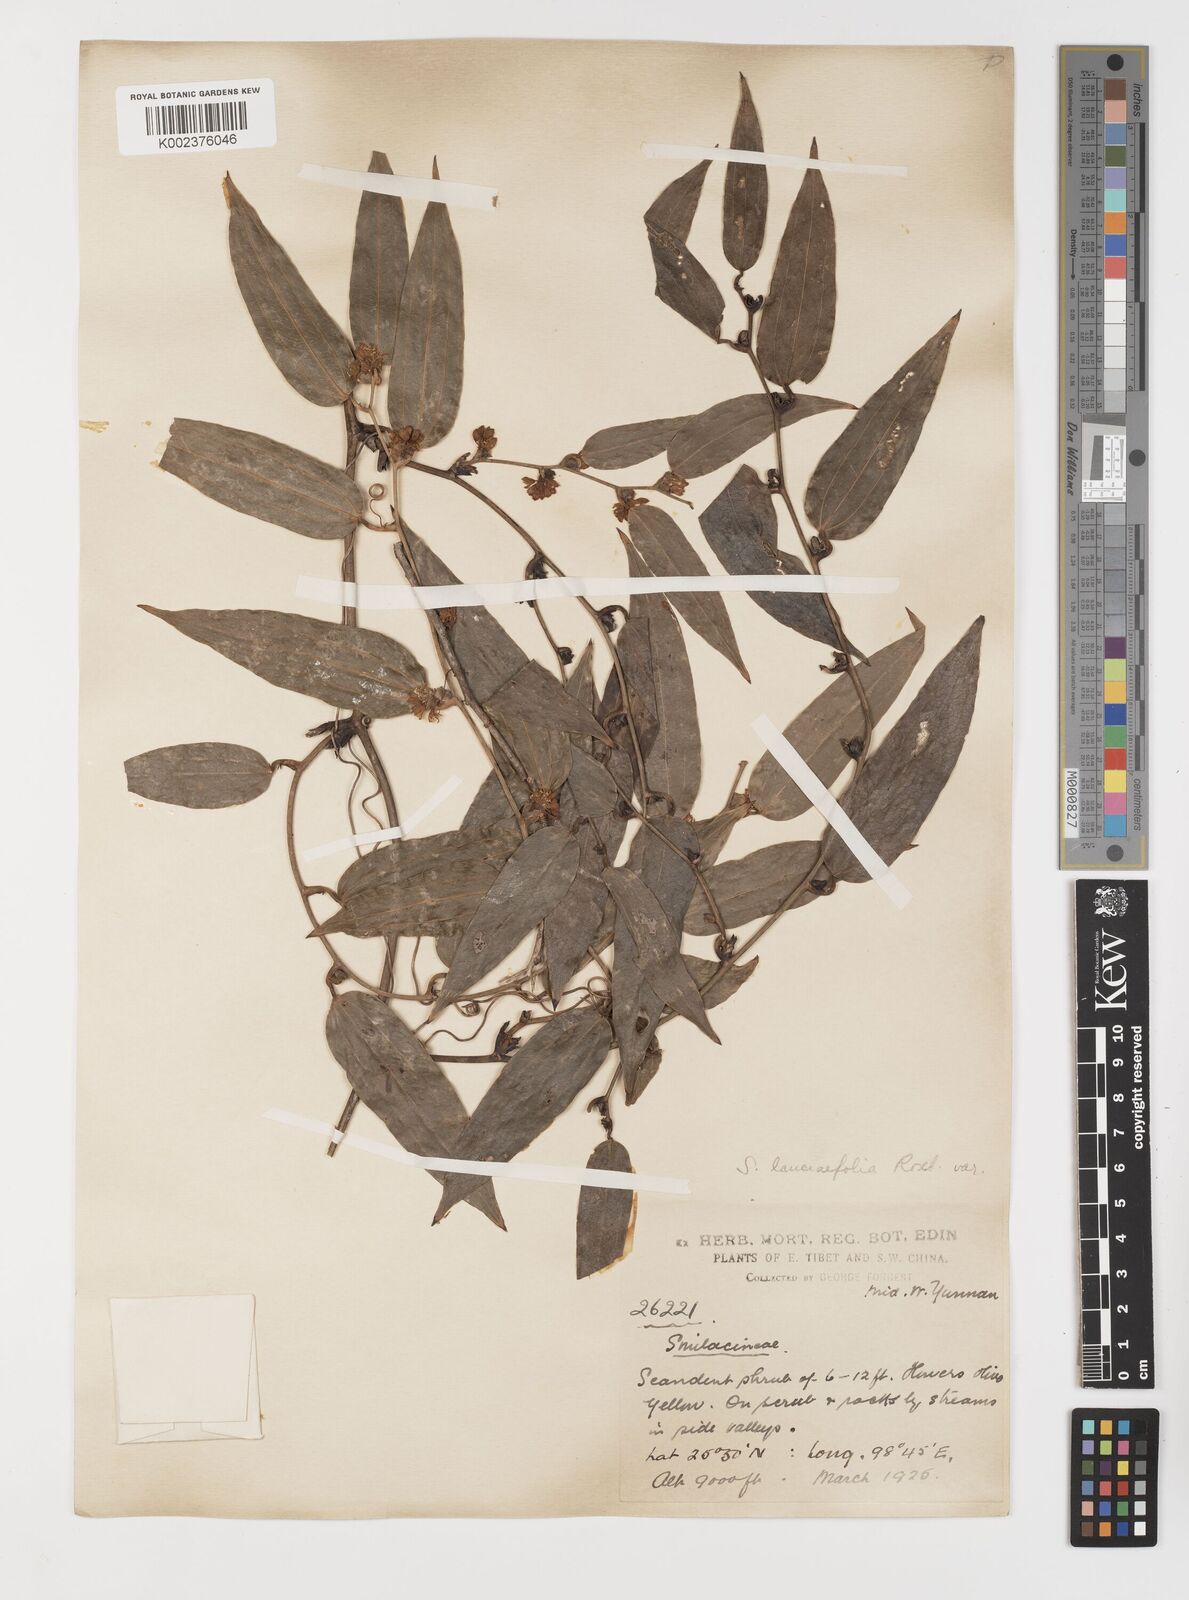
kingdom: Plantae
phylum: Tracheophyta
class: Liliopsida
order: Liliales
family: Smilacaceae
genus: Smilax
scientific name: Smilax lanceifolia
